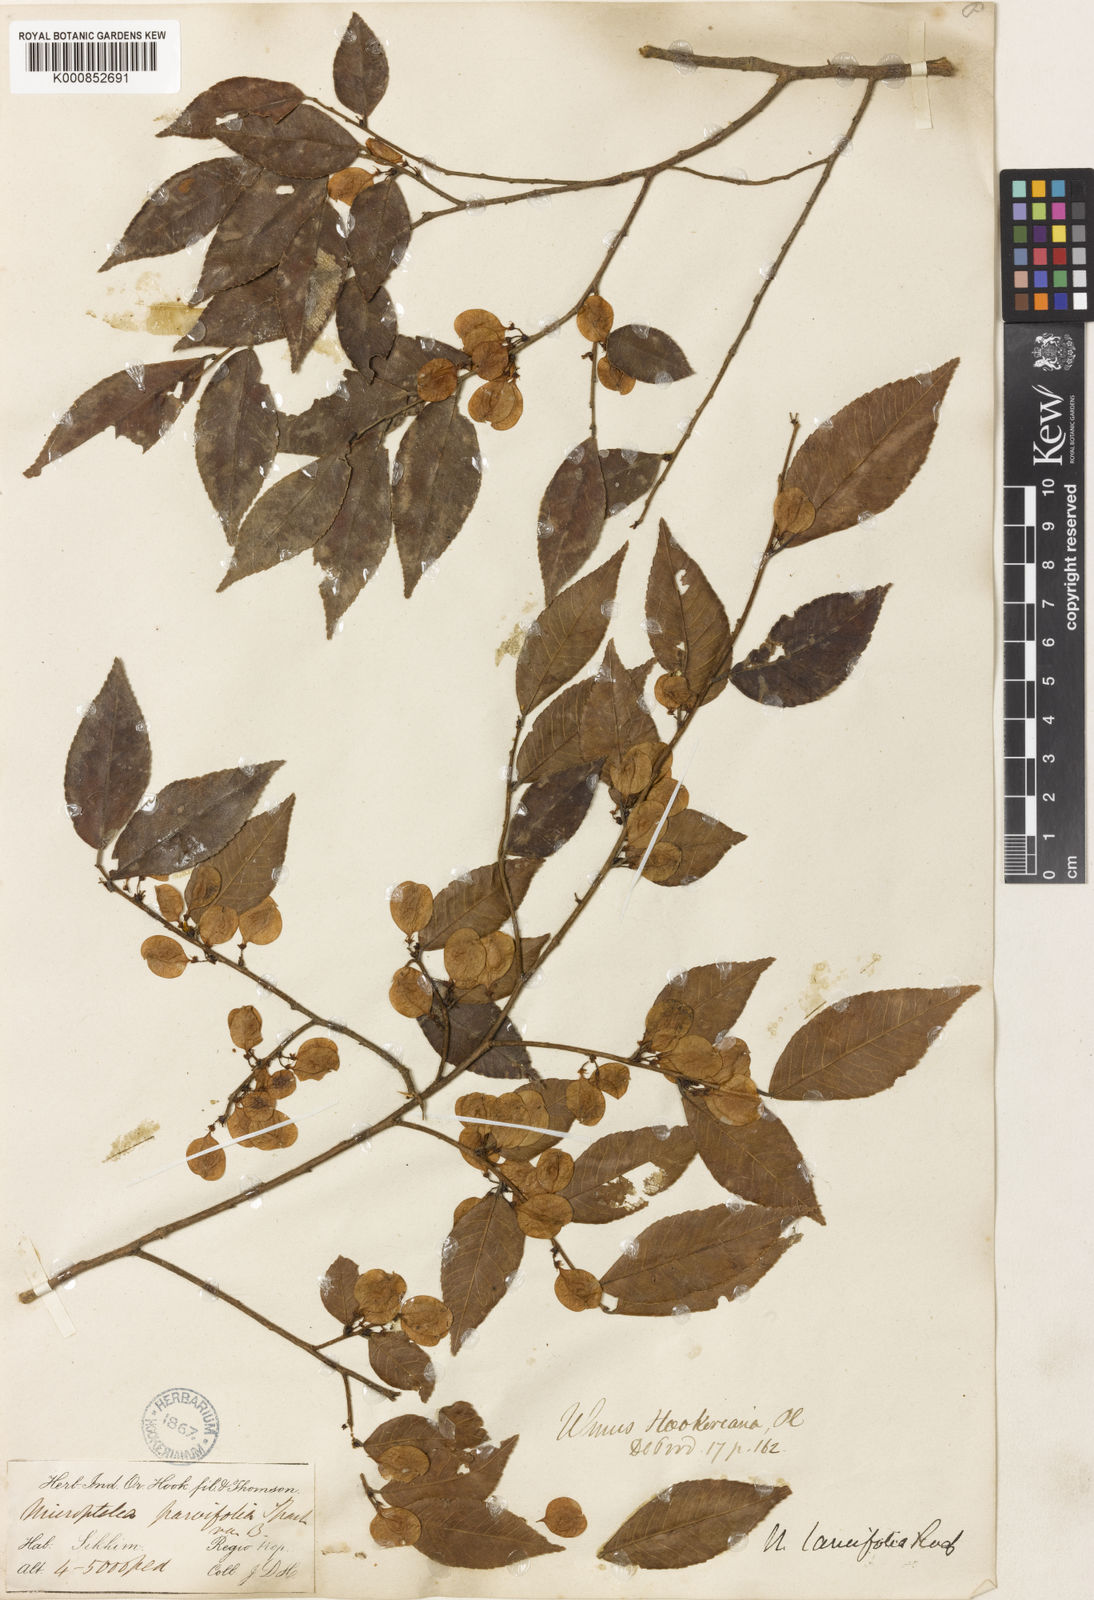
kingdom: Plantae
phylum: Tracheophyta
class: Magnoliopsida
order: Rosales
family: Ulmaceae
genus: Ulmus
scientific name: Ulmus
